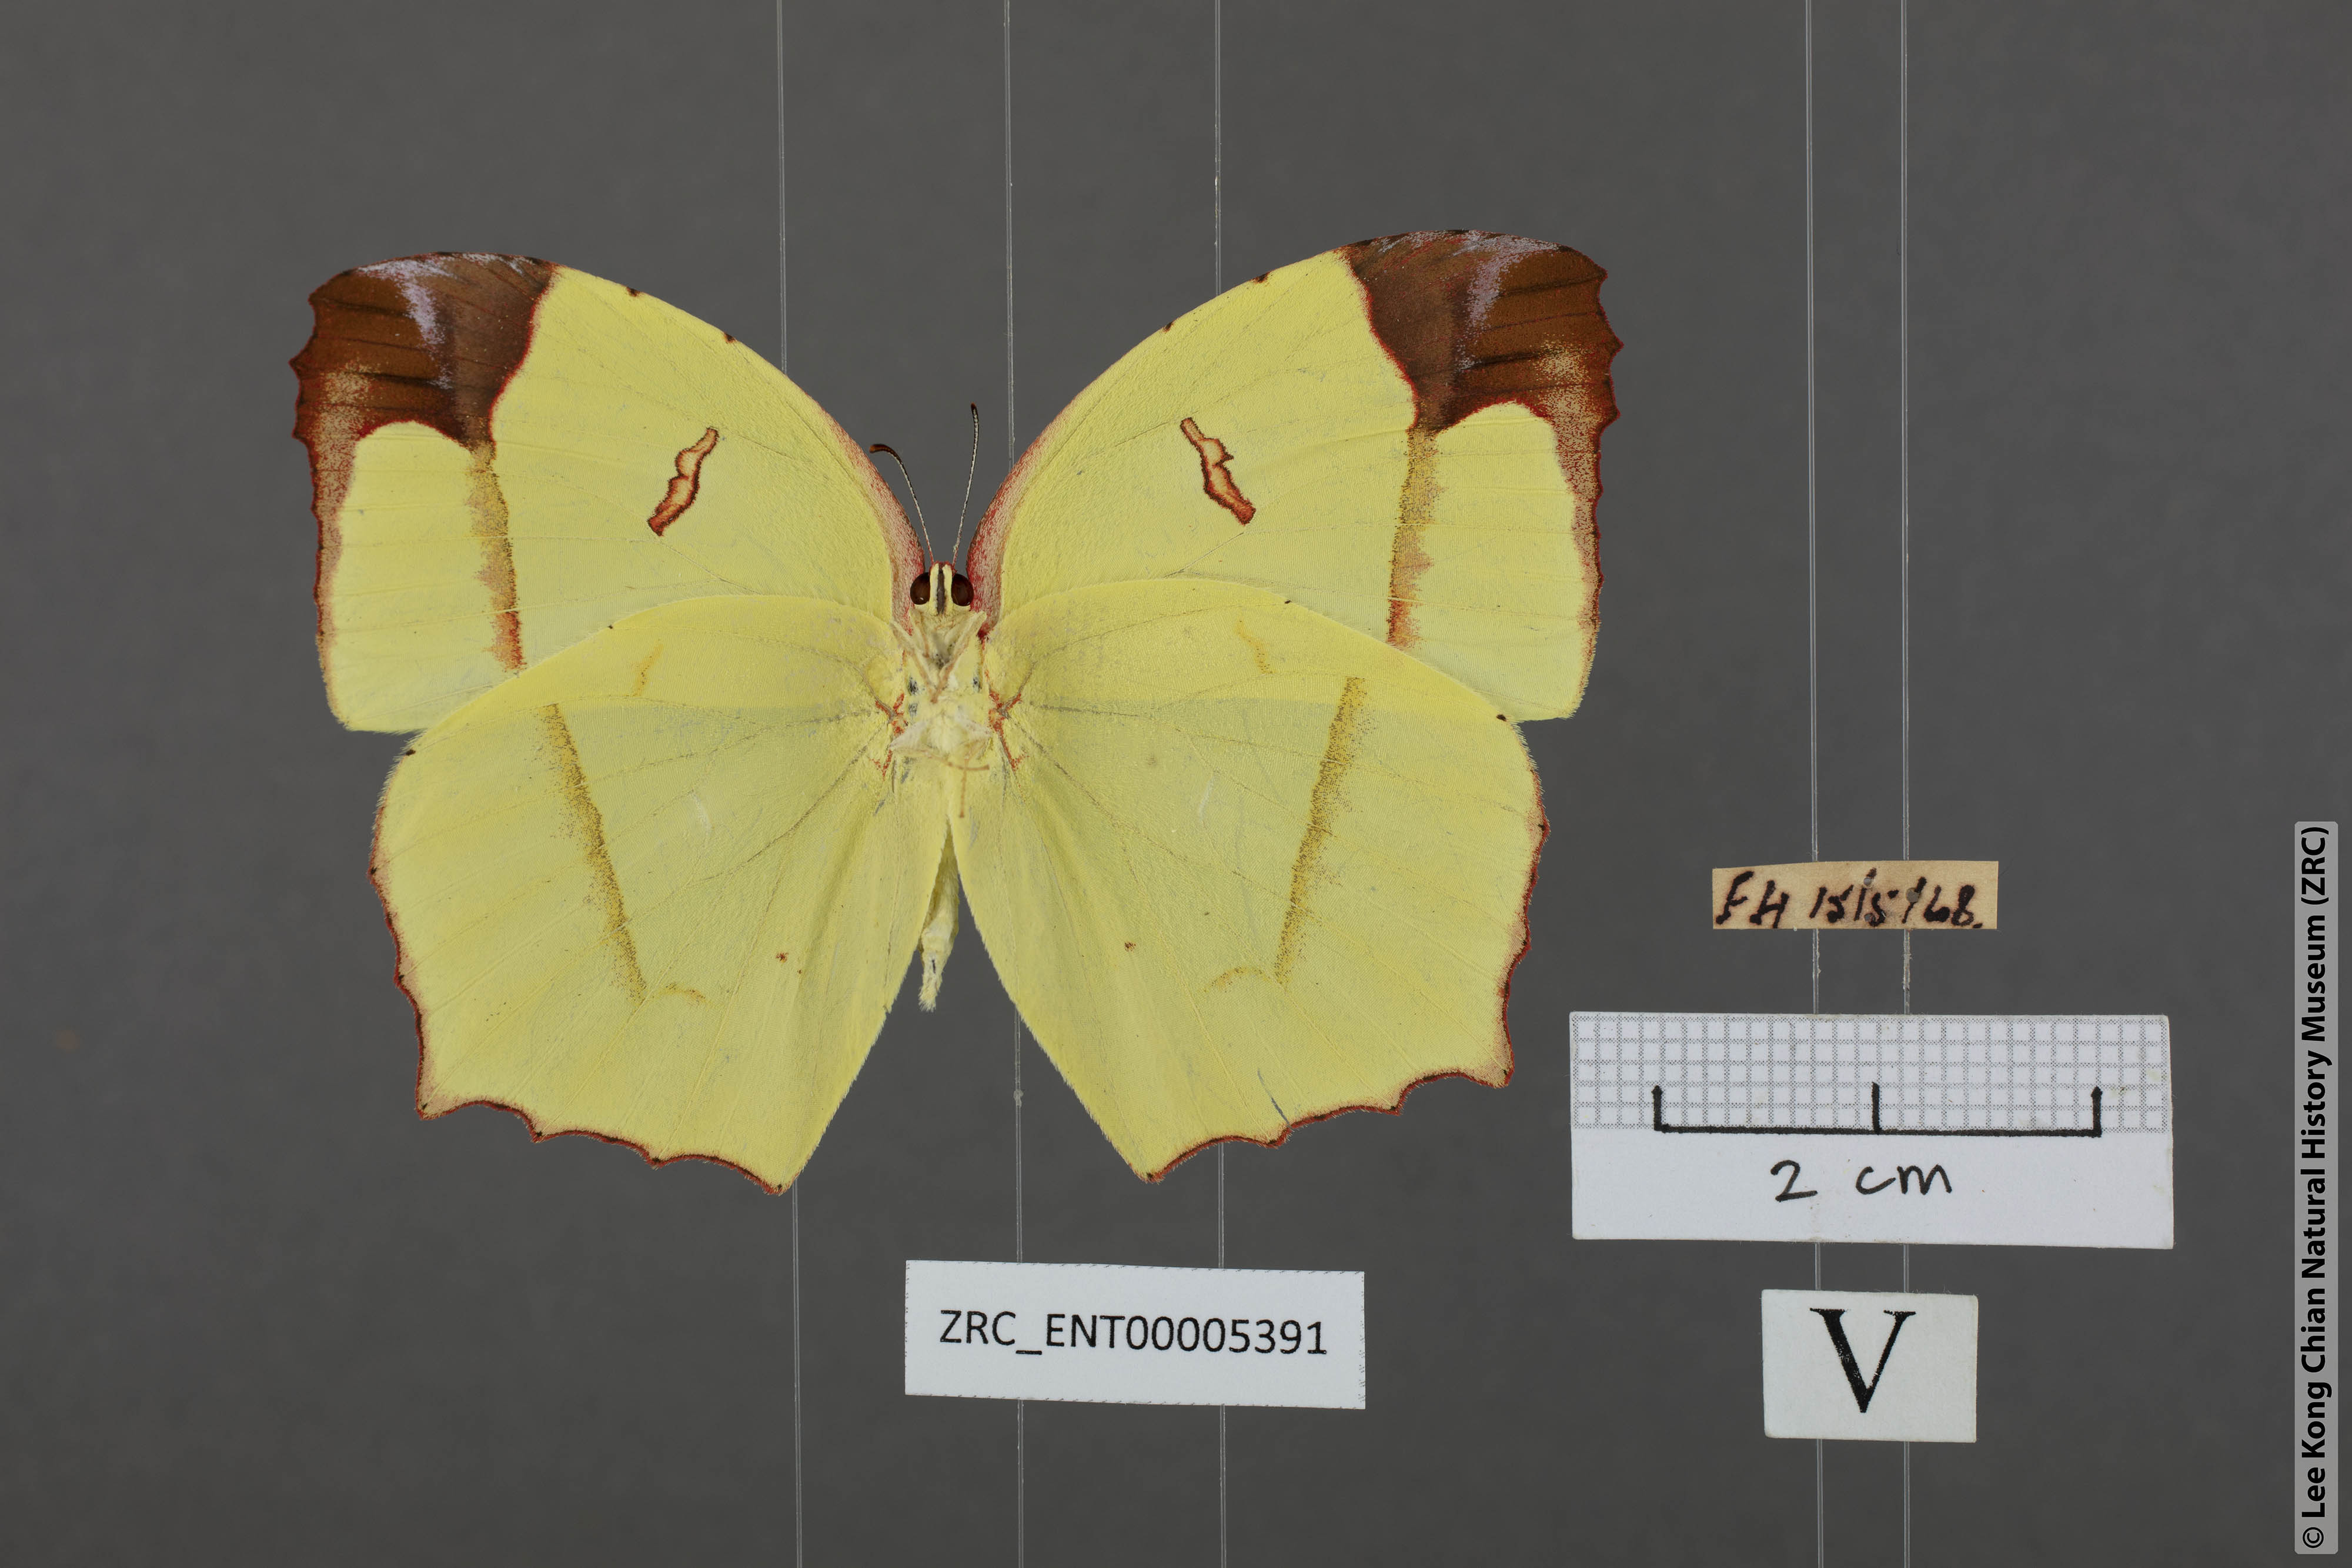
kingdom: Animalia
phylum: Arthropoda
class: Insecta
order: Lepidoptera
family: Pieridae
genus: Dercas
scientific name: Dercas verhuelli
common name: Tailed sulphur
